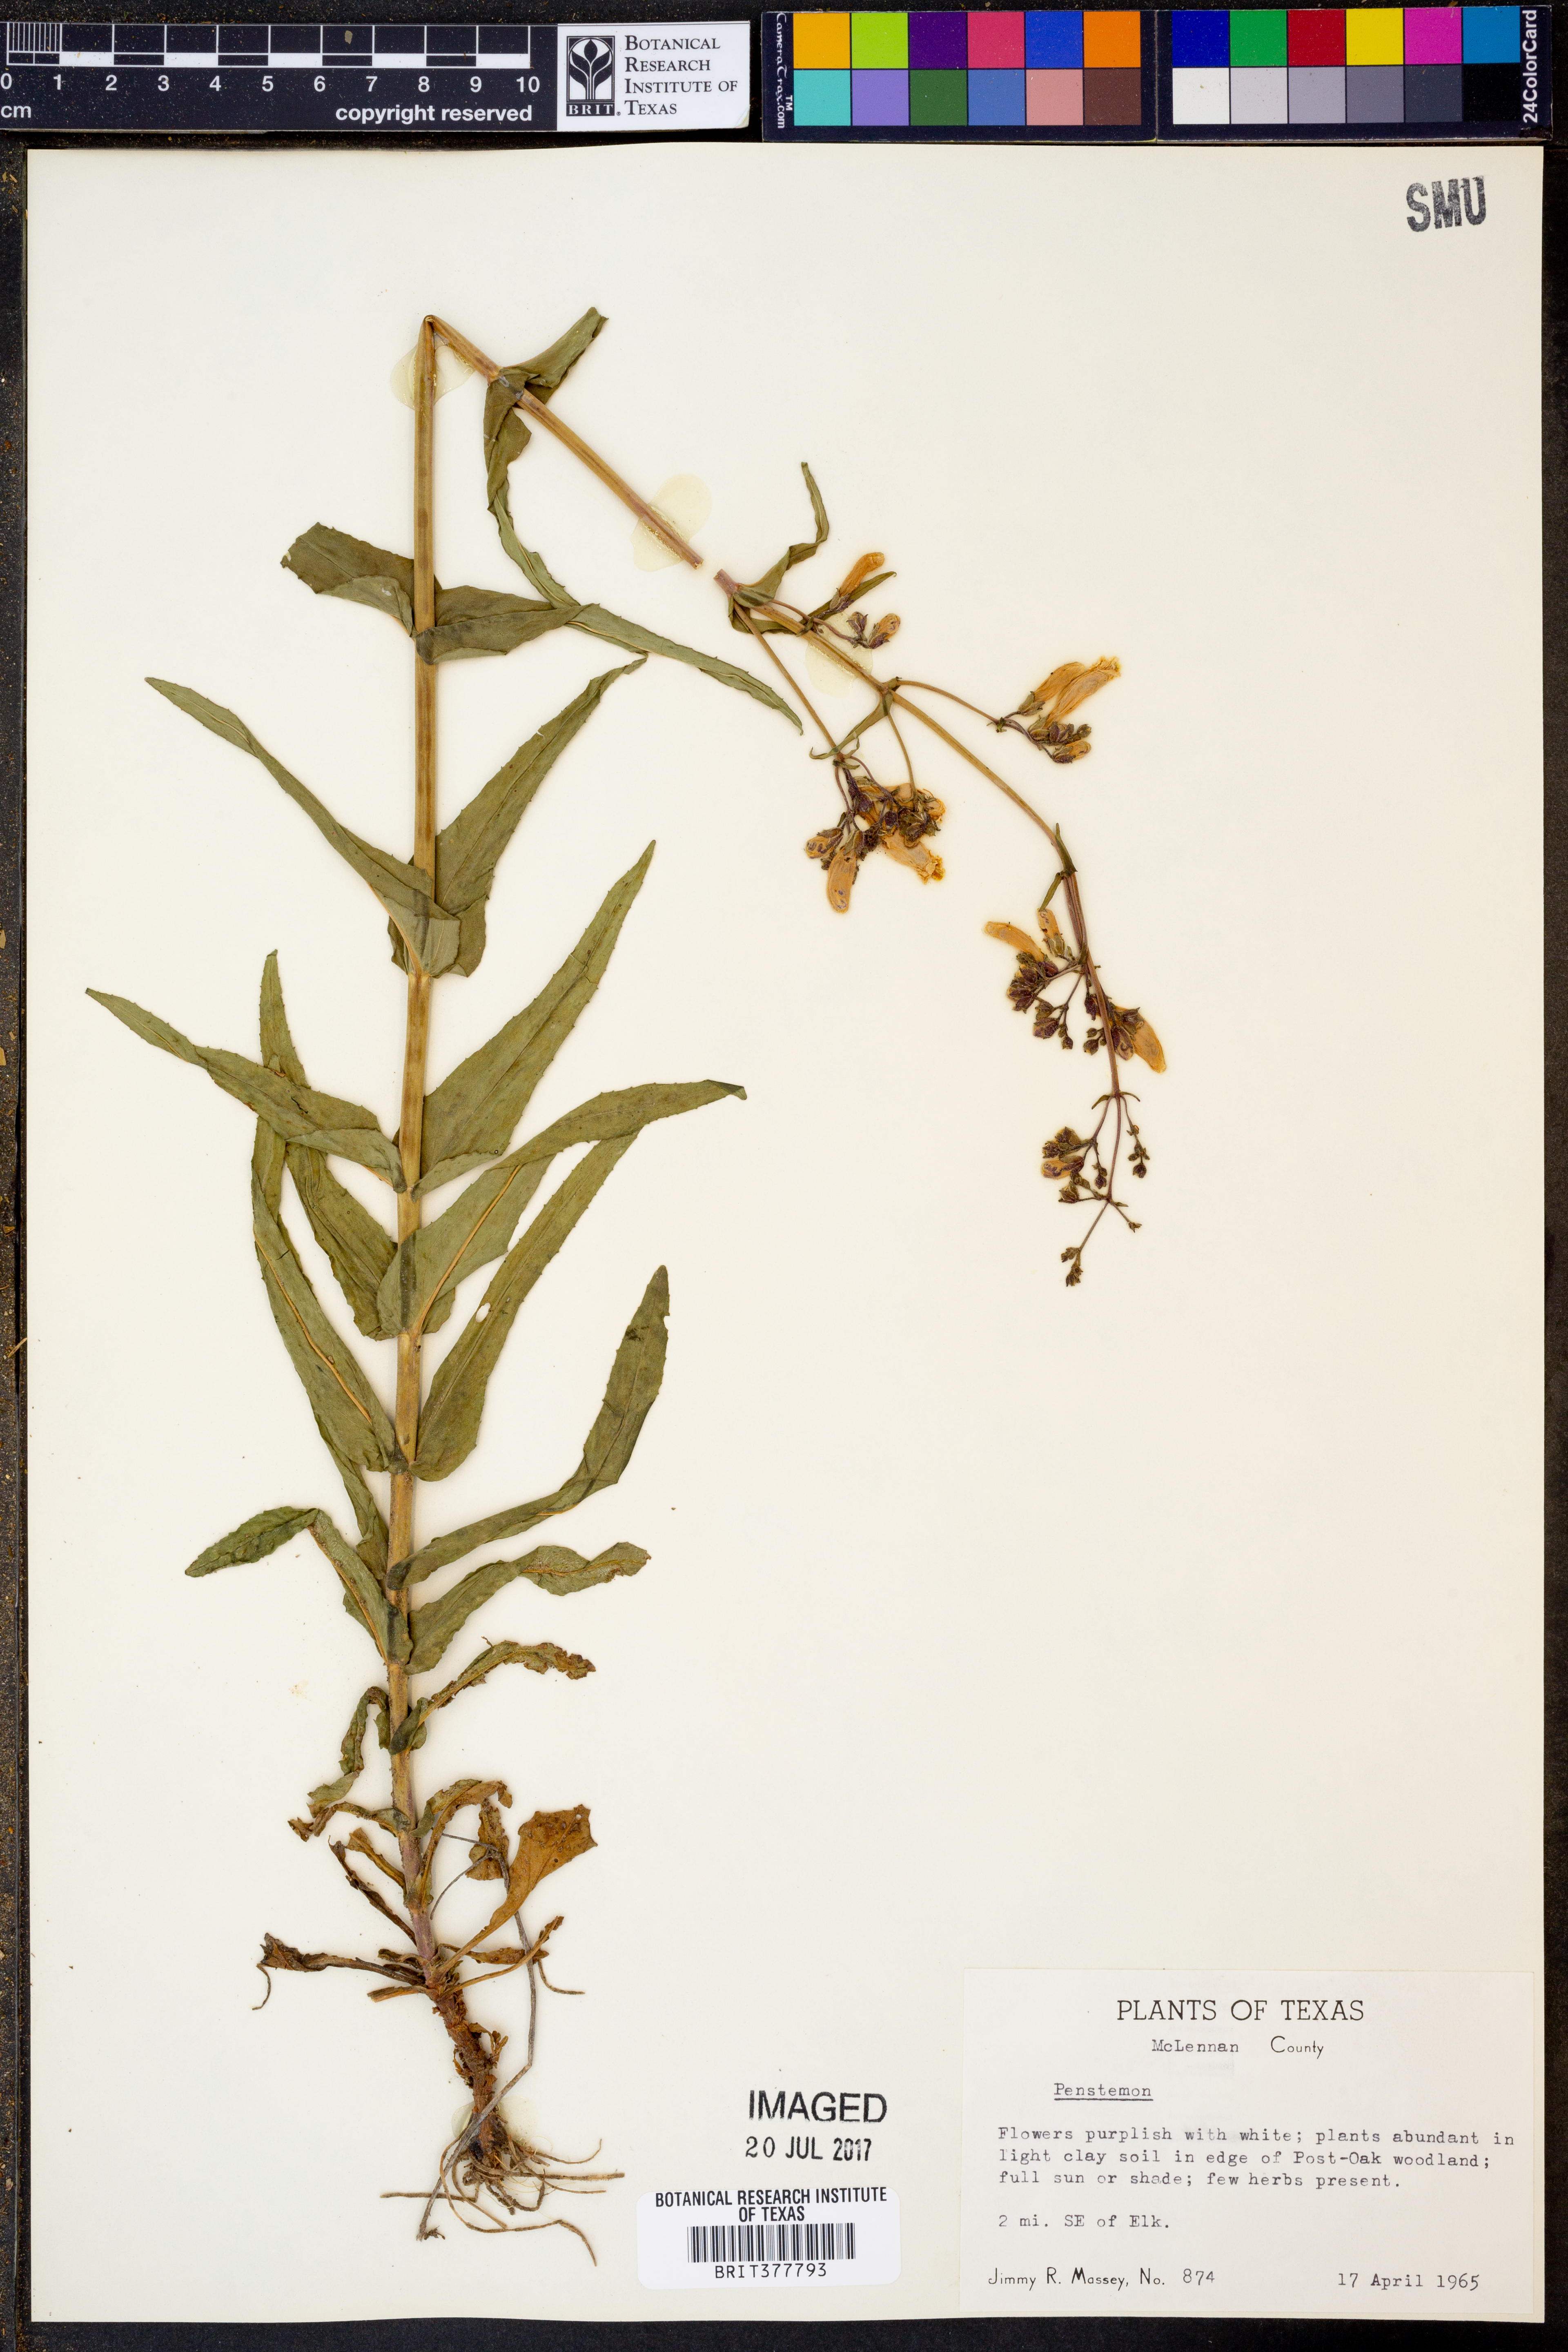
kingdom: Plantae
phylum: Tracheophyta
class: Magnoliopsida
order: Lamiales
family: Plantaginaceae
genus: Penstemon
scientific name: Penstemon laxiflorus
